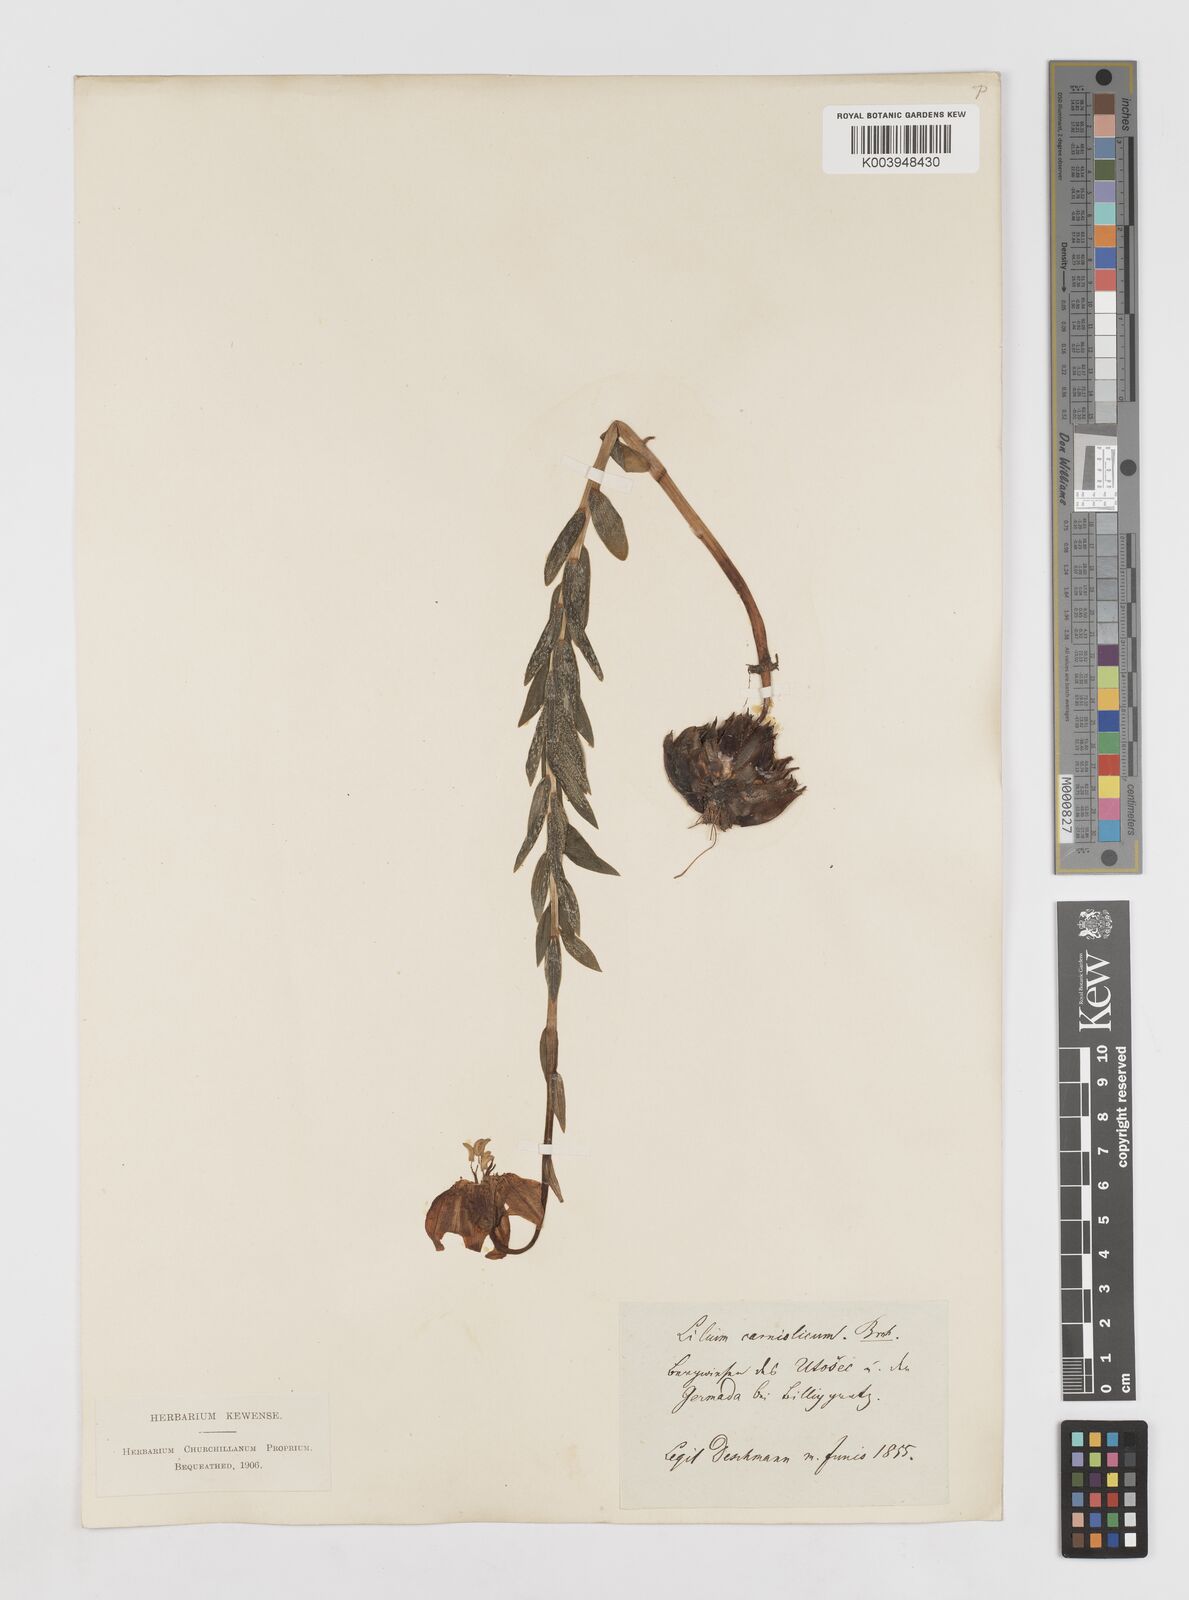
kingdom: Plantae
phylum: Tracheophyta
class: Liliopsida
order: Liliales
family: Liliaceae
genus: Lilium
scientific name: Lilium carniolicum
